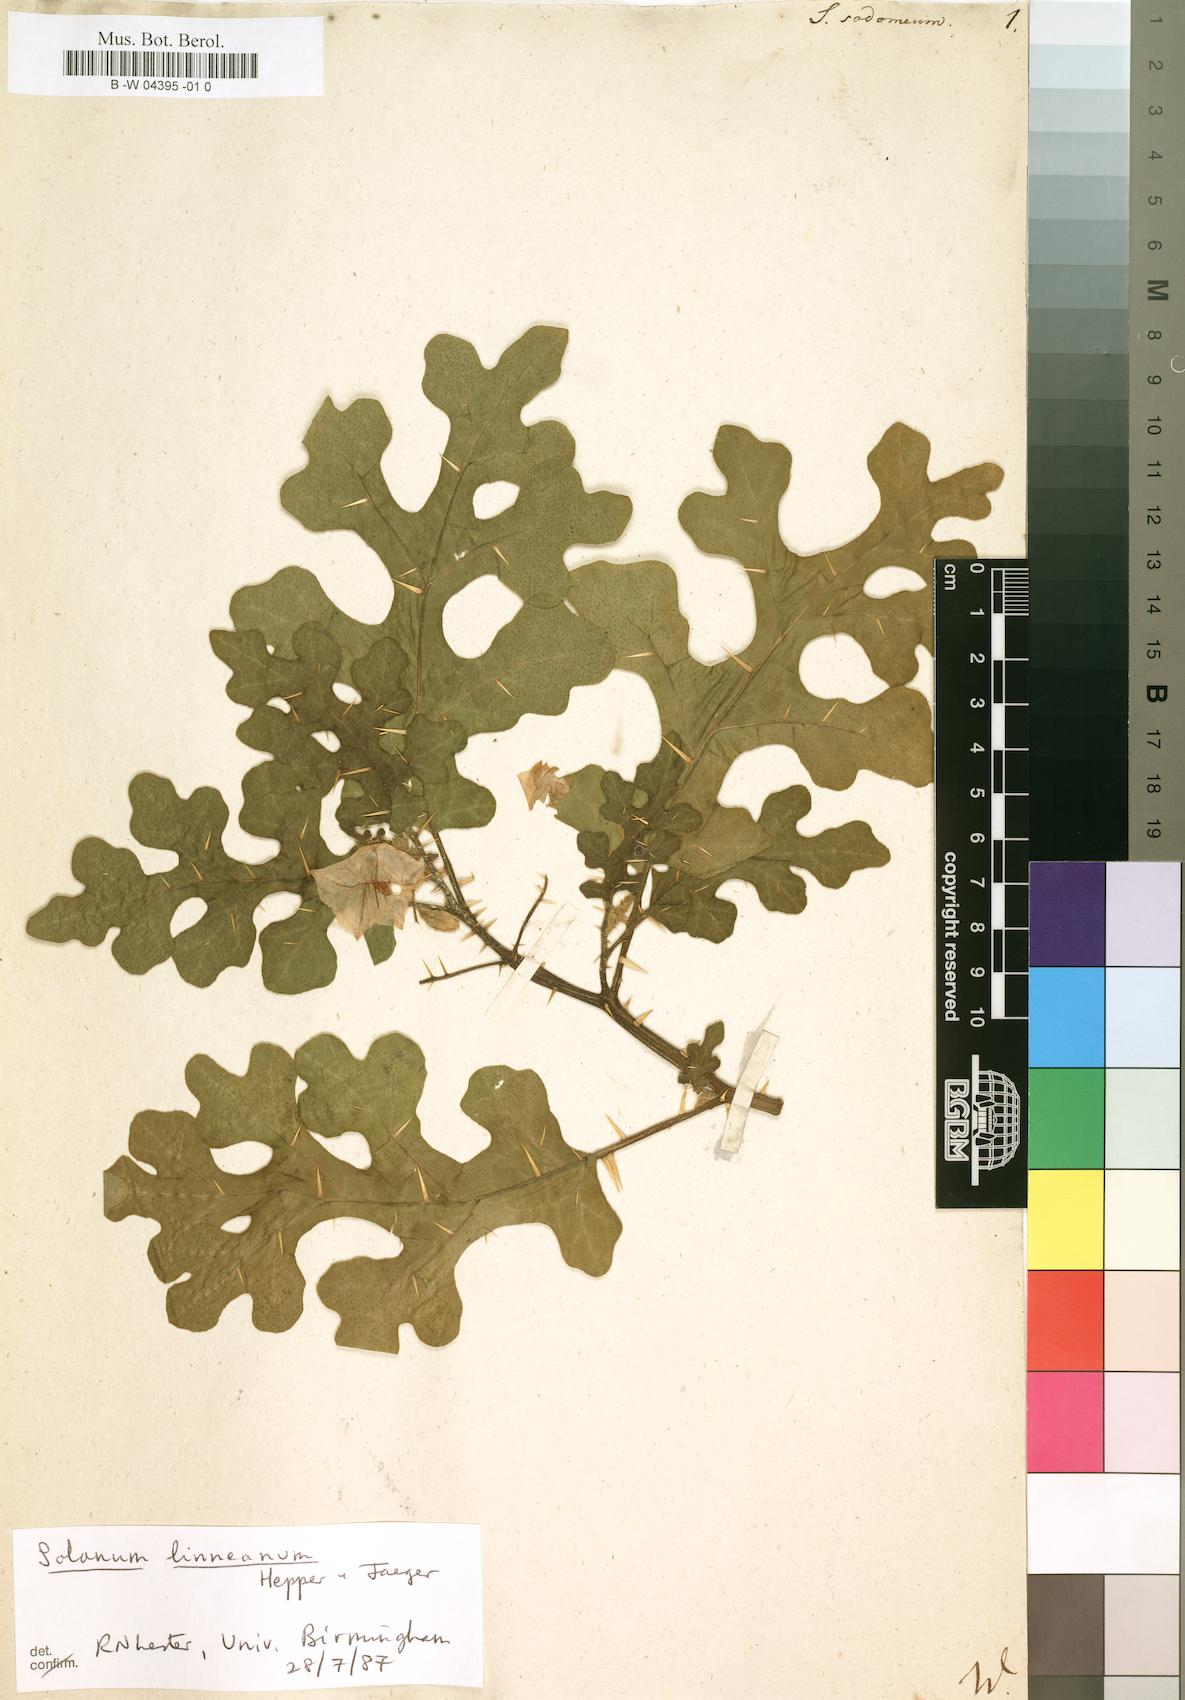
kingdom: Plantae
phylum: Tracheophyta
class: Magnoliopsida
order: Solanales
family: Solanaceae
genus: Solanum
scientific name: Solanum
